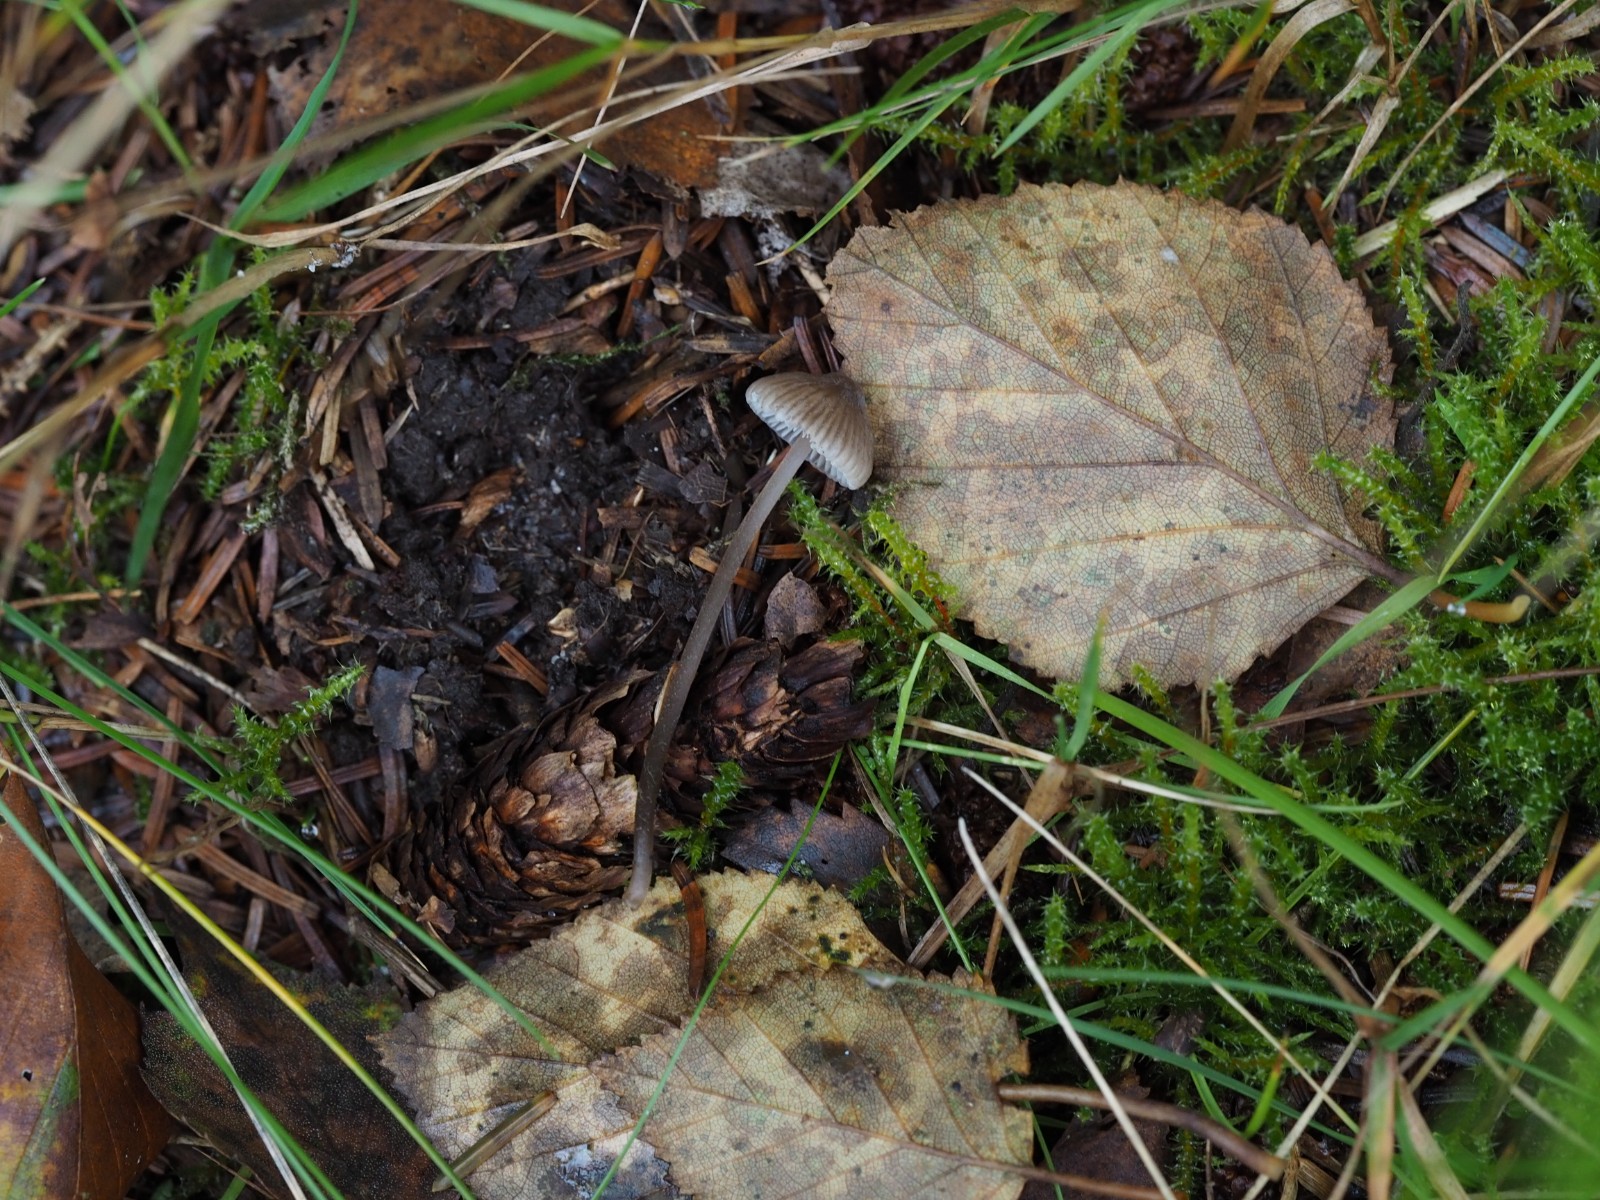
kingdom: Fungi
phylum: Basidiomycota
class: Agaricomycetes
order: Agaricales
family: Mycenaceae
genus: Mycena
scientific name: Mycena
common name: huesvamp
